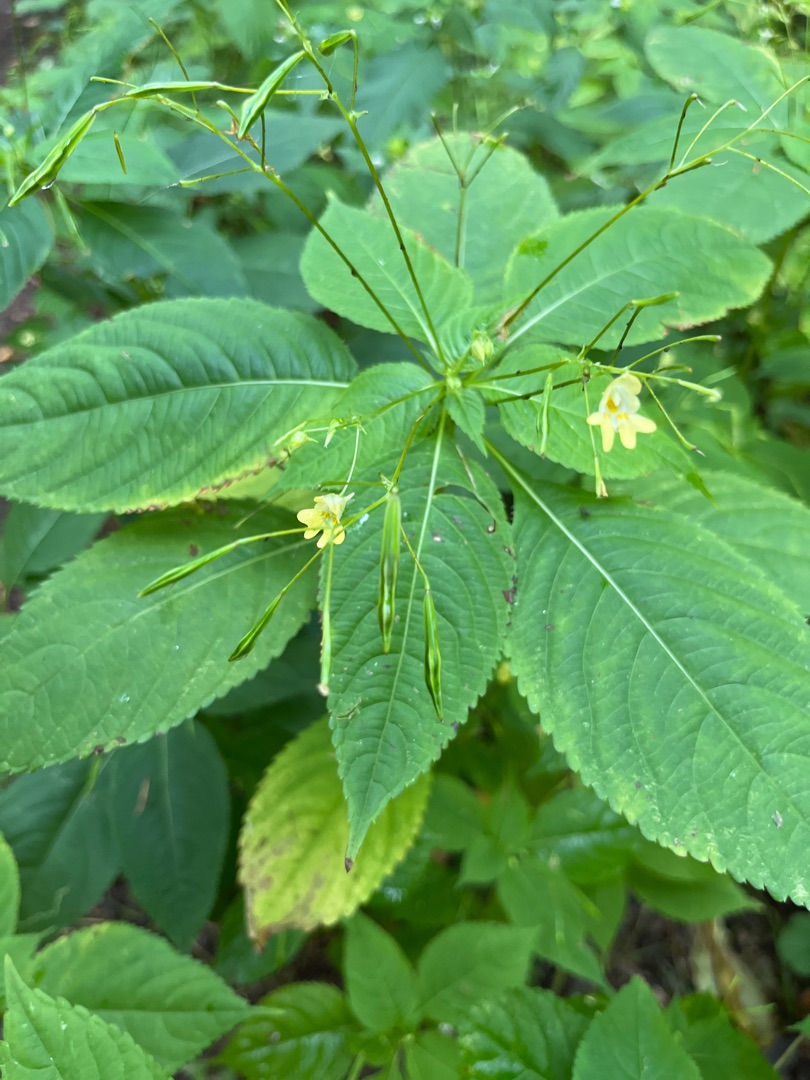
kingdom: Plantae
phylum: Tracheophyta
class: Magnoliopsida
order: Ericales
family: Balsaminaceae
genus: Impatiens
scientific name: Impatiens parviflora
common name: Småblomstret balsamin
